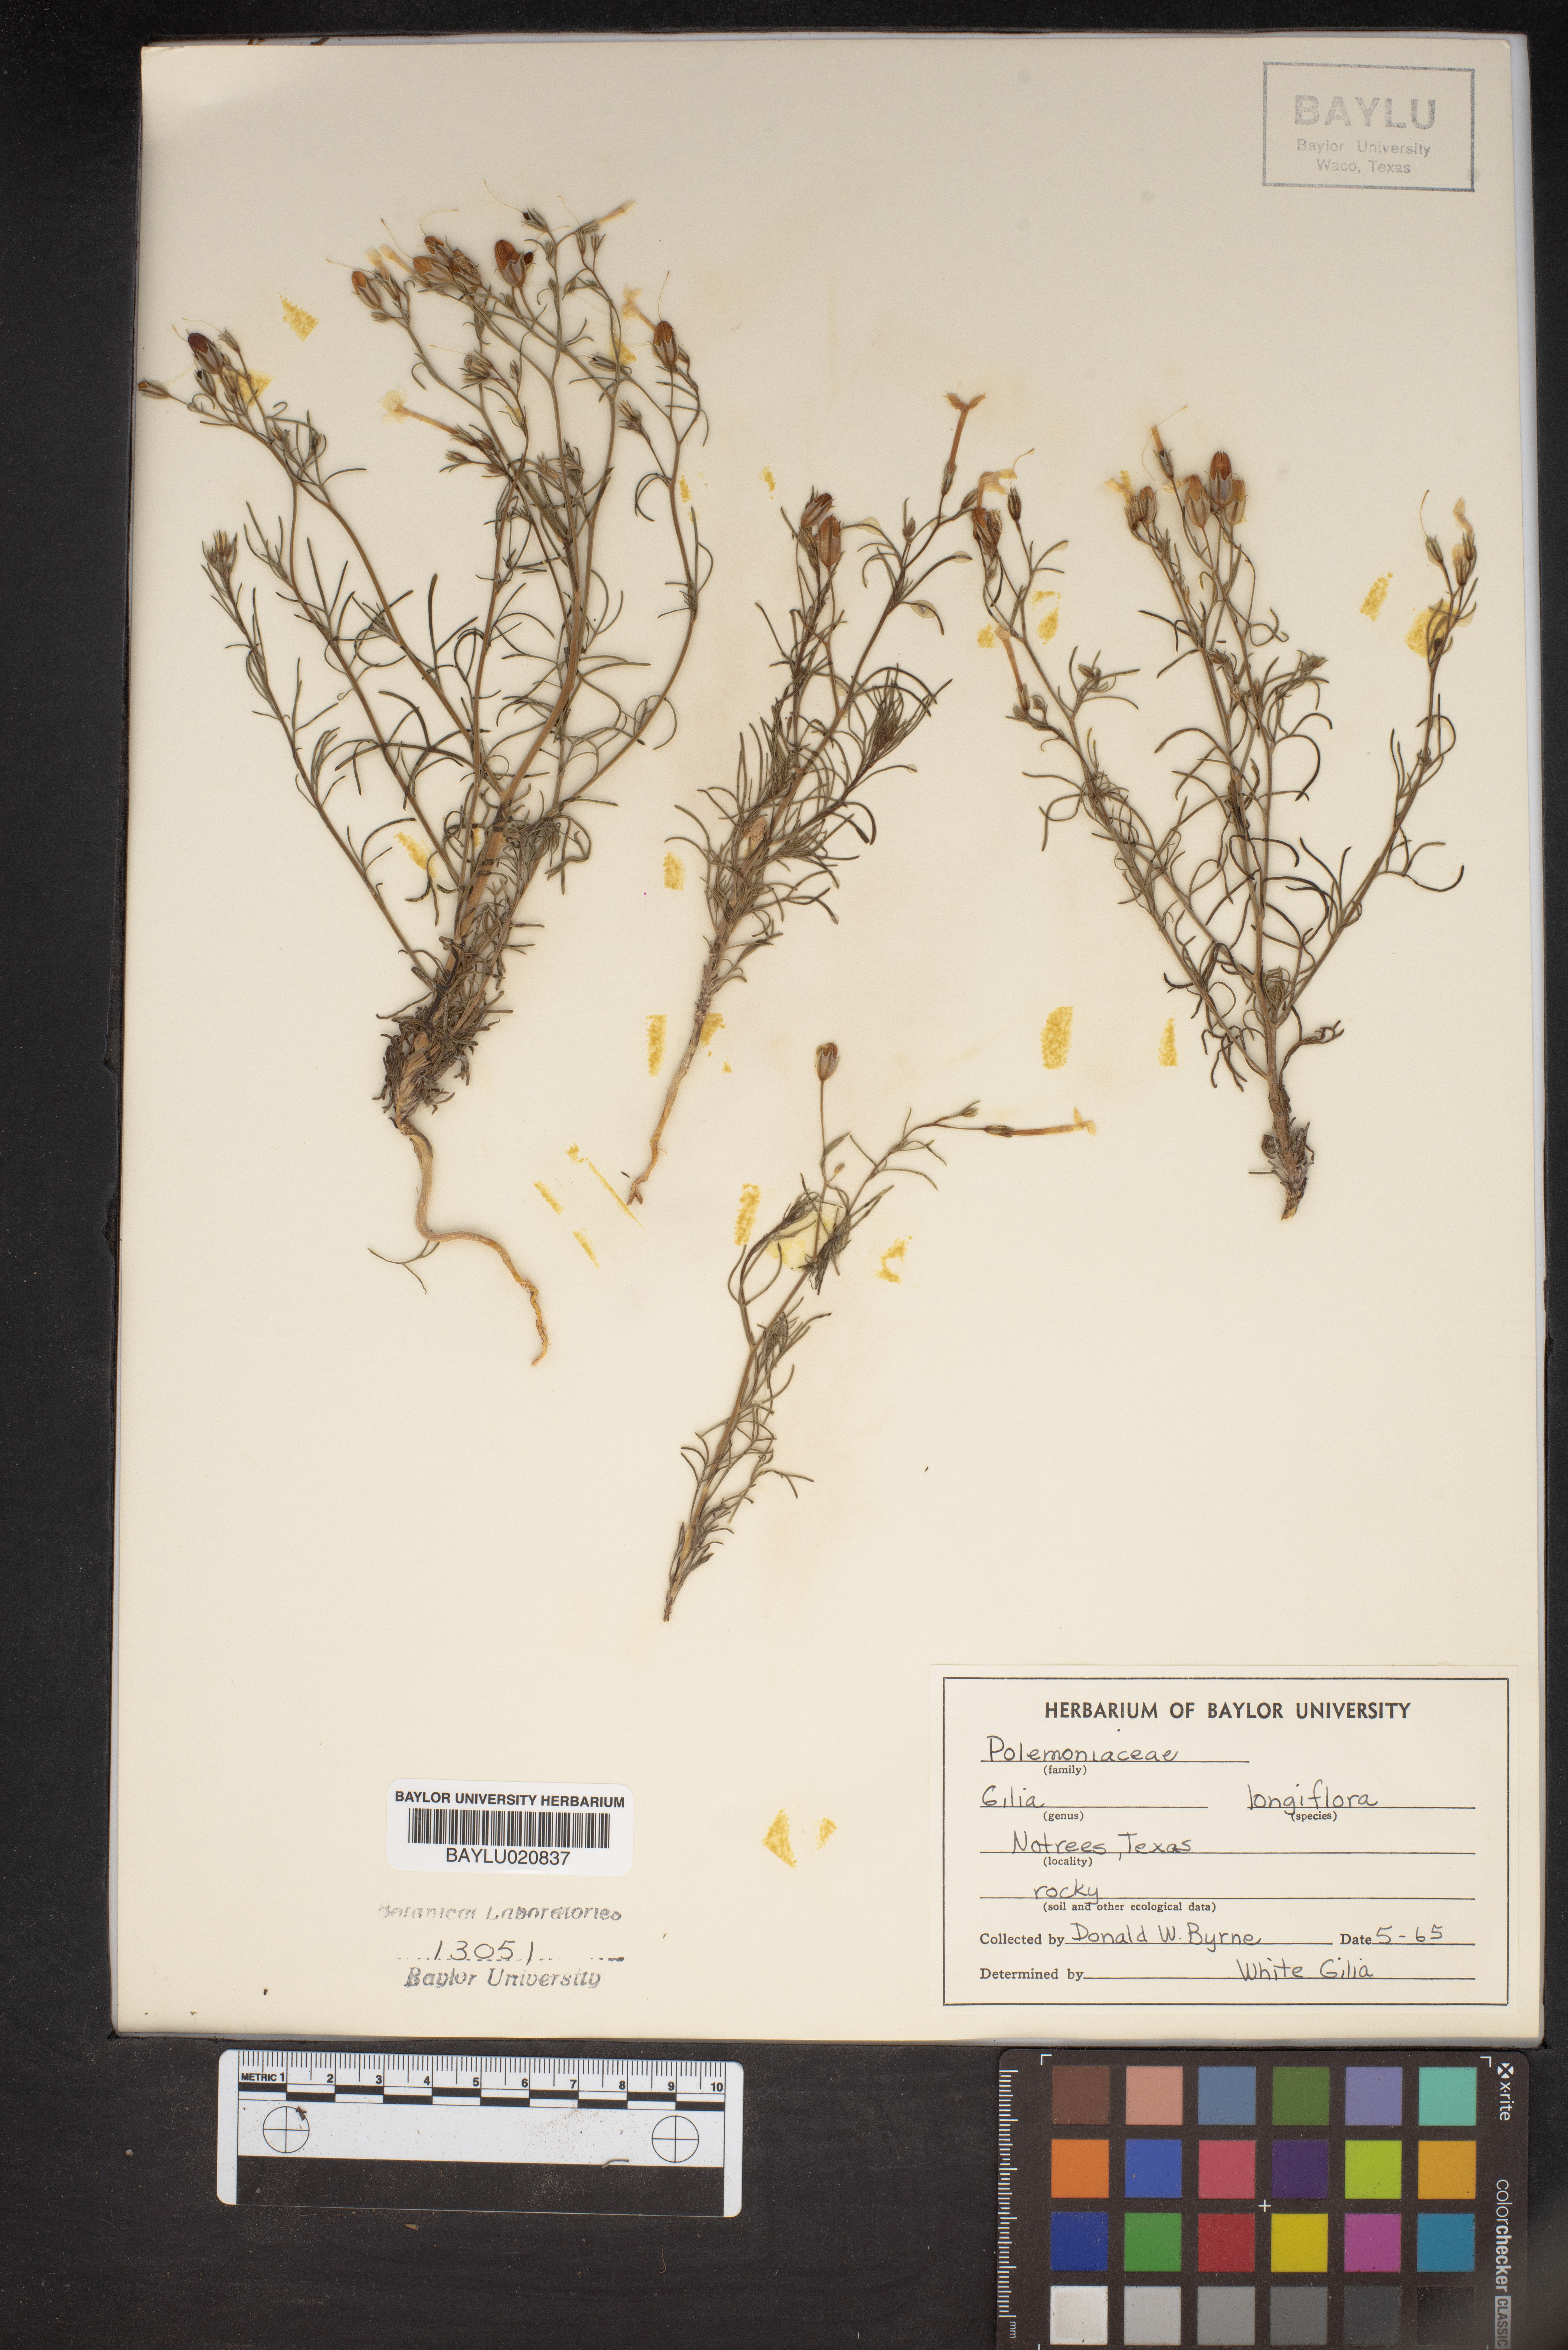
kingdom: Plantae
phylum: Tracheophyta
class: Magnoliopsida
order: Ericales
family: Polemoniaceae
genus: Ipomopsis
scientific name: Ipomopsis longiflora
